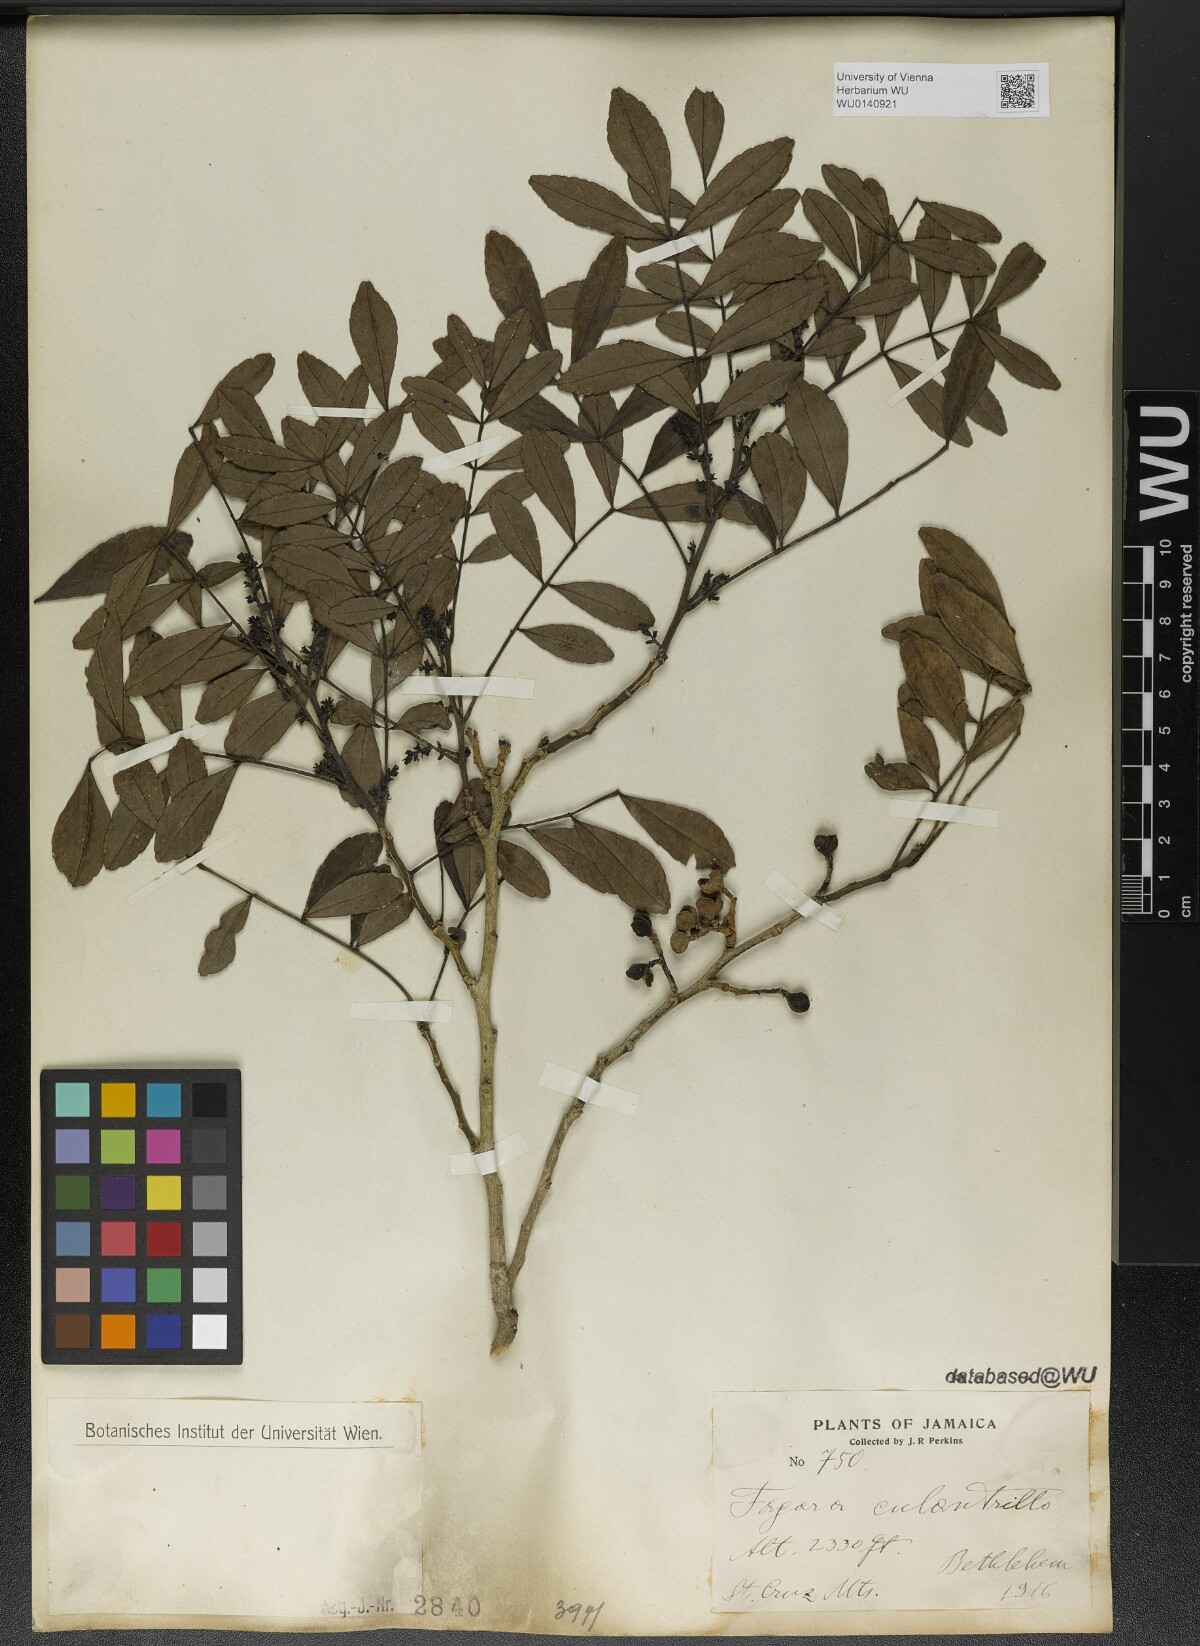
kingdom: Plantae
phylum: Tracheophyta
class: Magnoliopsida
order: Sapindales
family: Rutaceae
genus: Zanthoxylum
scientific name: Zanthoxylum fagara
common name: Lime prickly-ash
